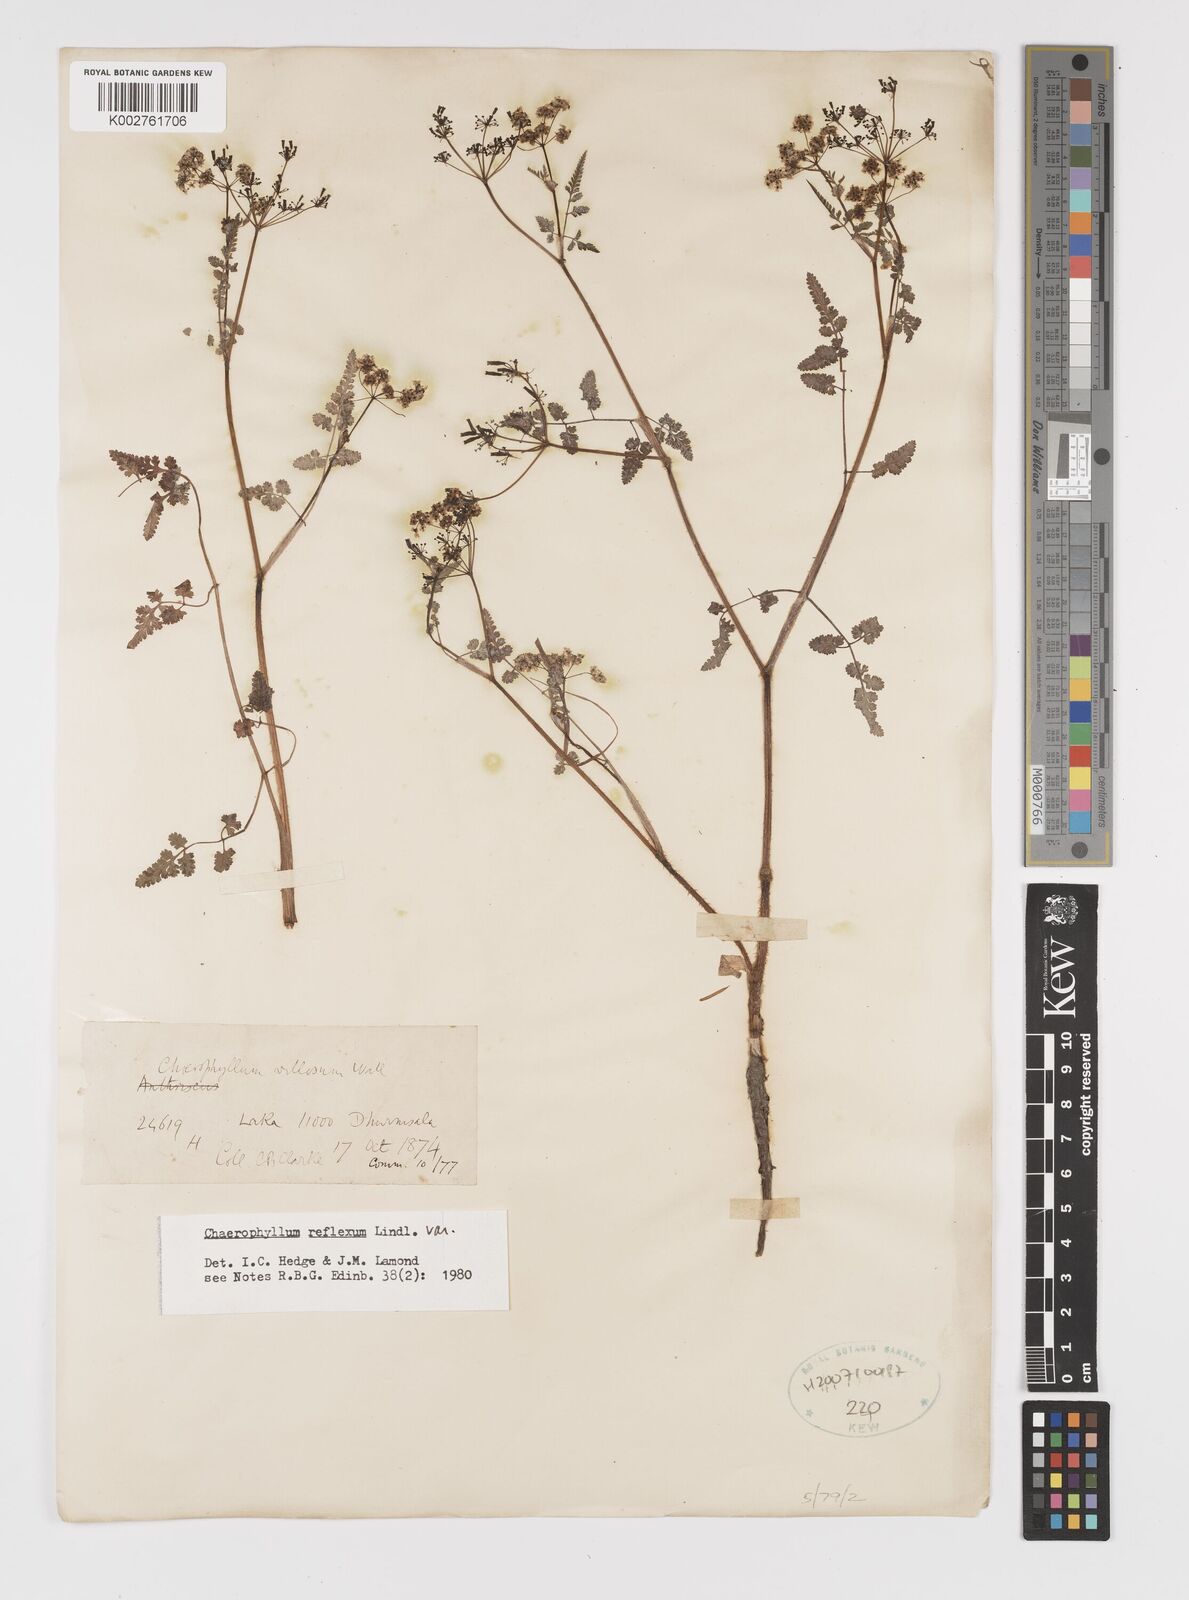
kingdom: Plantae
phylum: Tracheophyta
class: Magnoliopsida
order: Apiales
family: Apiaceae
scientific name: Apiaceae
